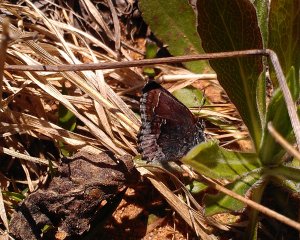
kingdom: Animalia
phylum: Arthropoda
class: Insecta
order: Lepidoptera
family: Lycaenidae
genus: Callophrys
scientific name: Callophrys polios
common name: Hoary Elfin
